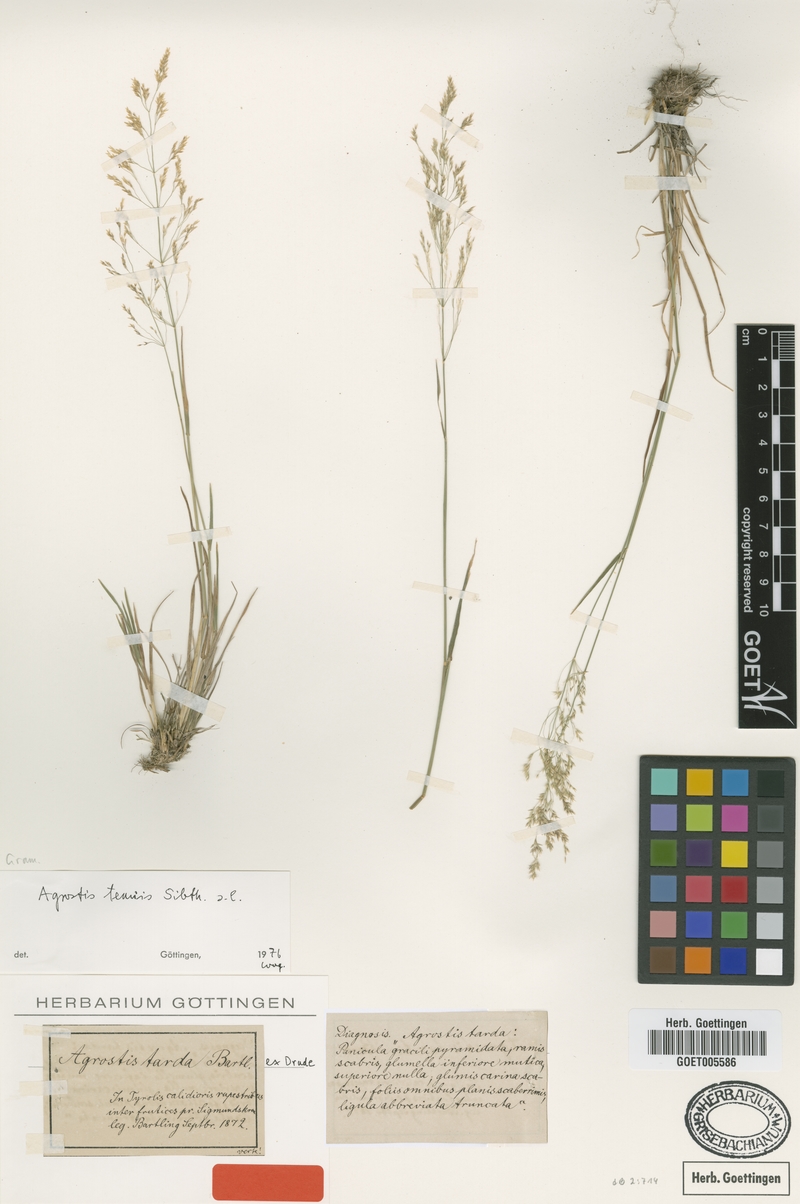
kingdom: Plantae
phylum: Tracheophyta
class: Liliopsida
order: Poales
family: Poaceae
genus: Agrostis
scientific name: Agrostis capillaris
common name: Colonial bentgrass
